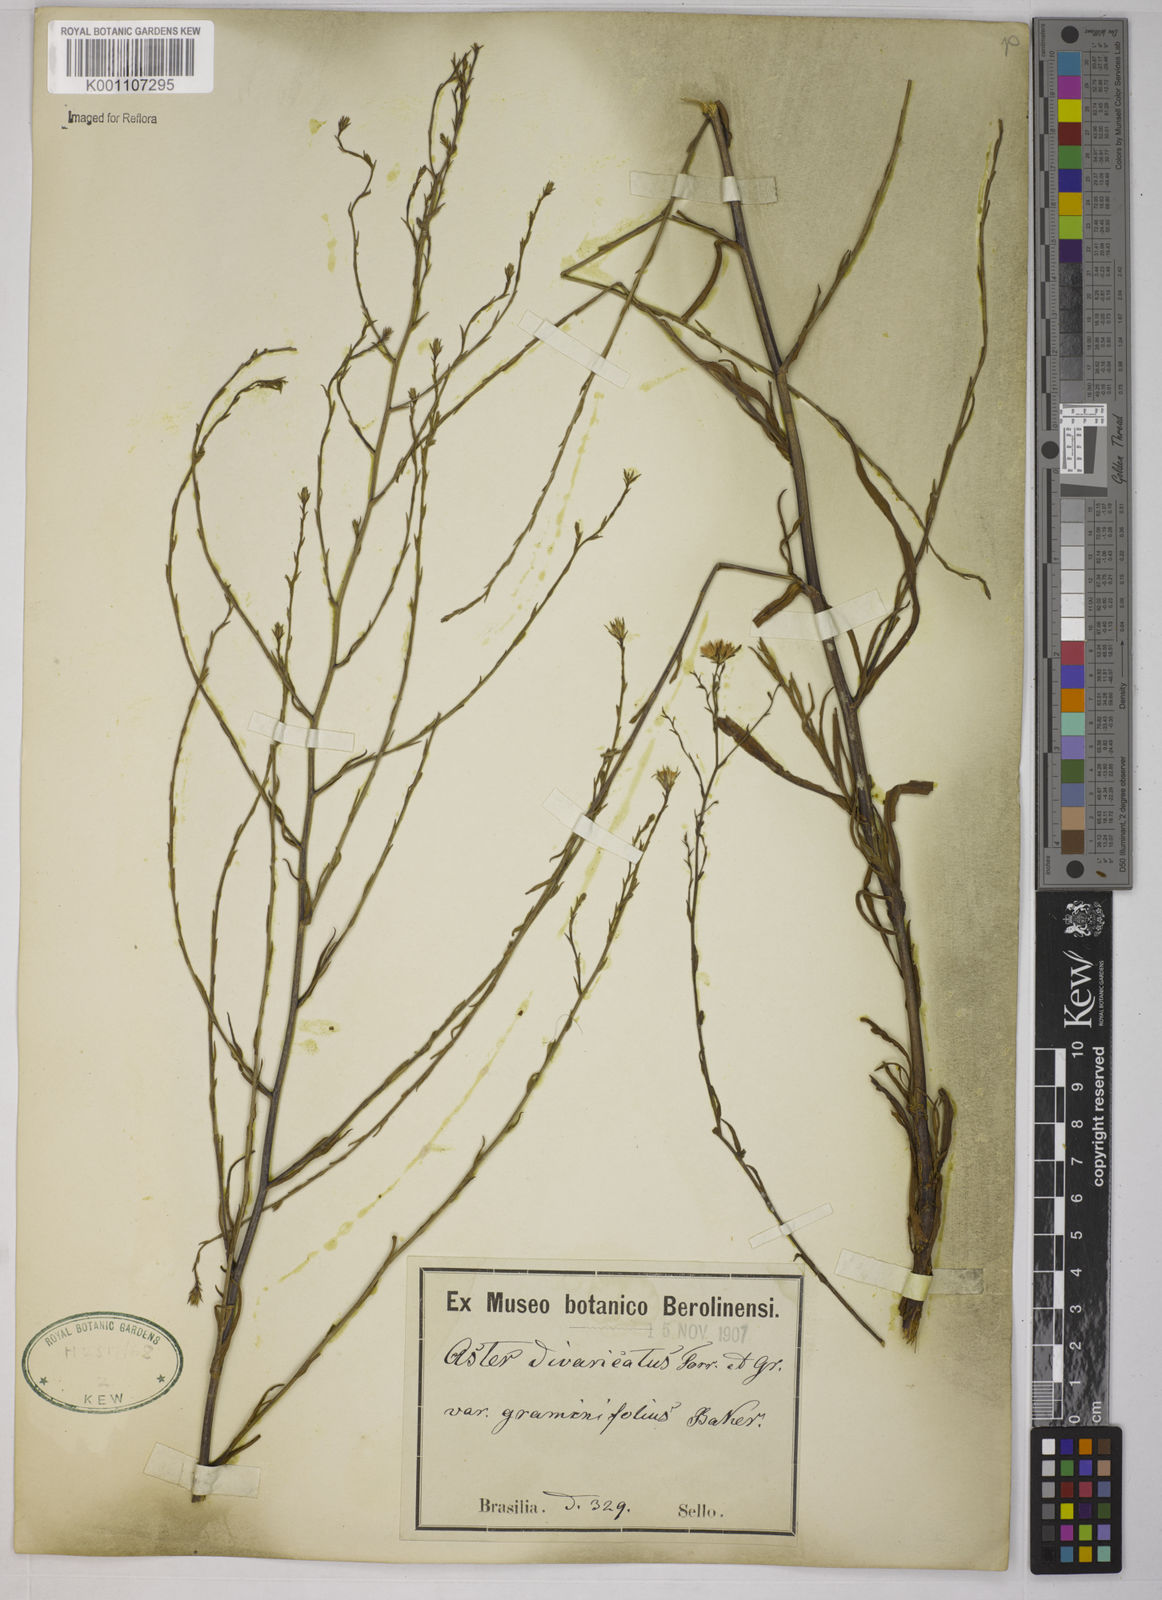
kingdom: Plantae
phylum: Tracheophyta
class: Magnoliopsida
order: Asterales
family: Asteraceae
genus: Symphyotrichum
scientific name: Symphyotrichum
